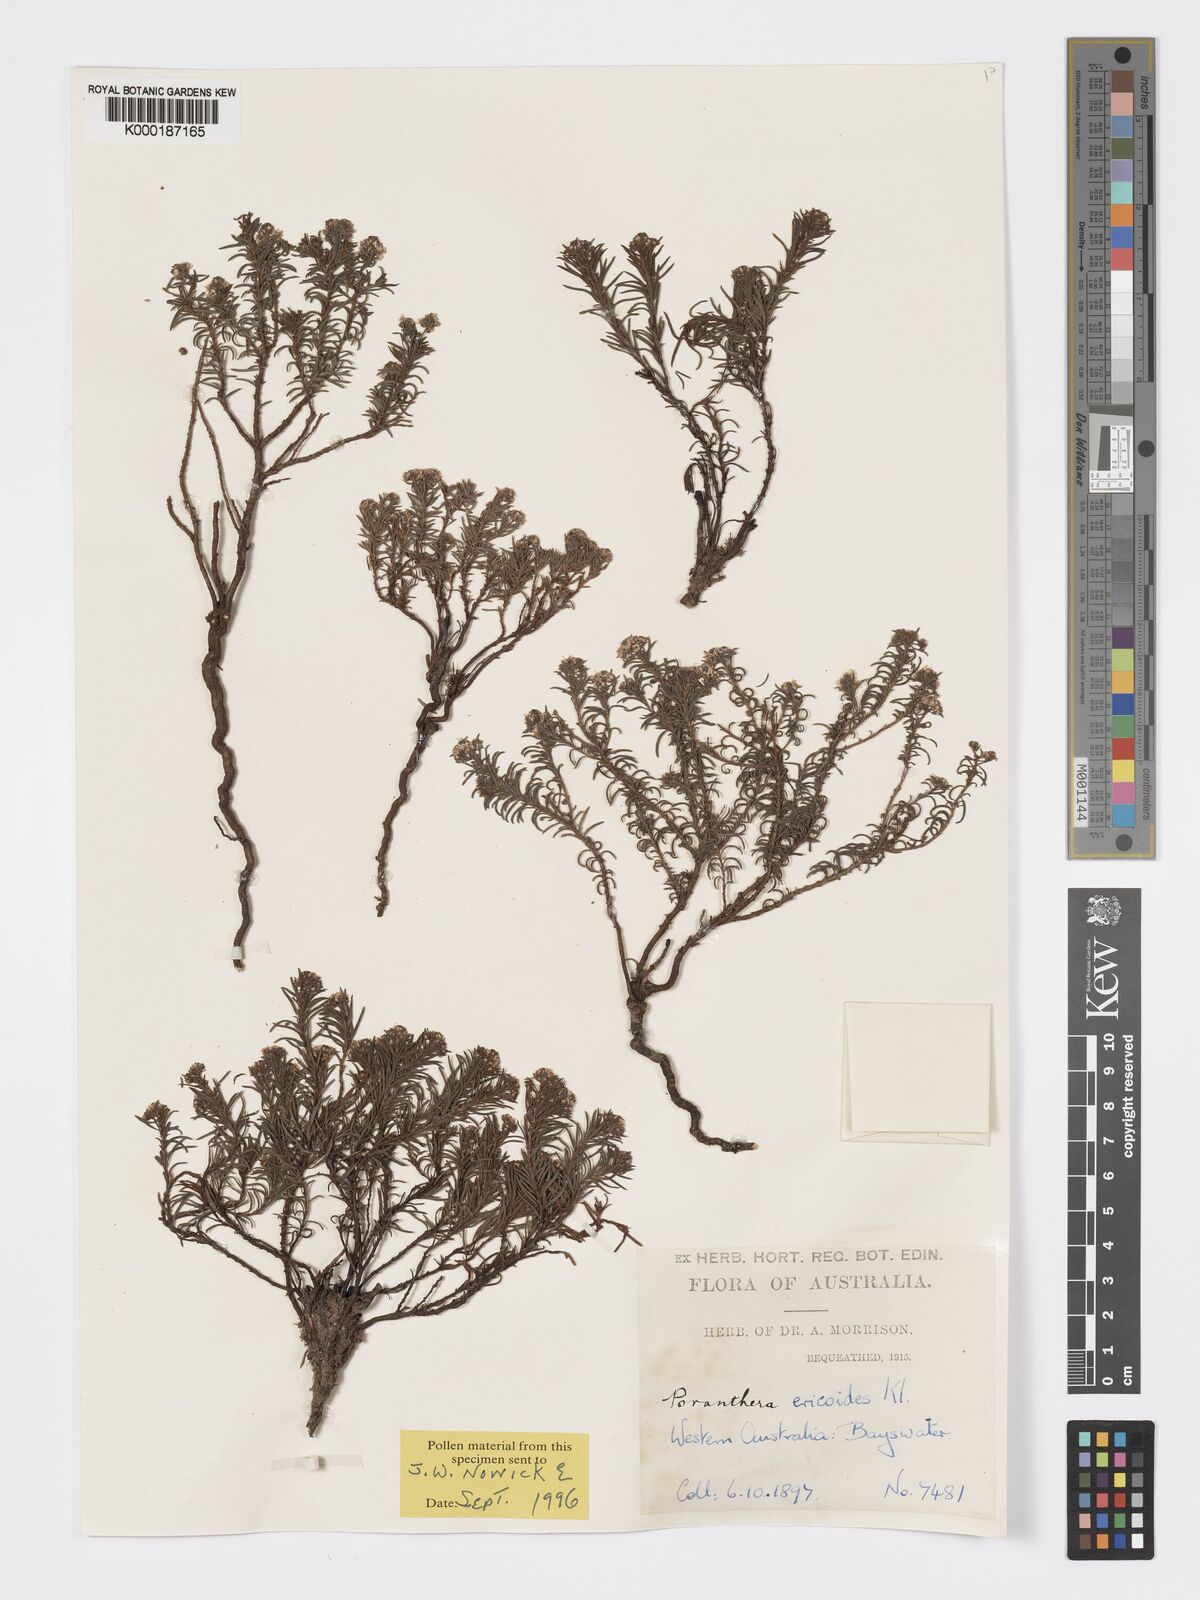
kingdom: Plantae
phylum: Tracheophyta
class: Magnoliopsida
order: Malpighiales
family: Phyllanthaceae
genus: Poranthera
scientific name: Poranthera ericoides
